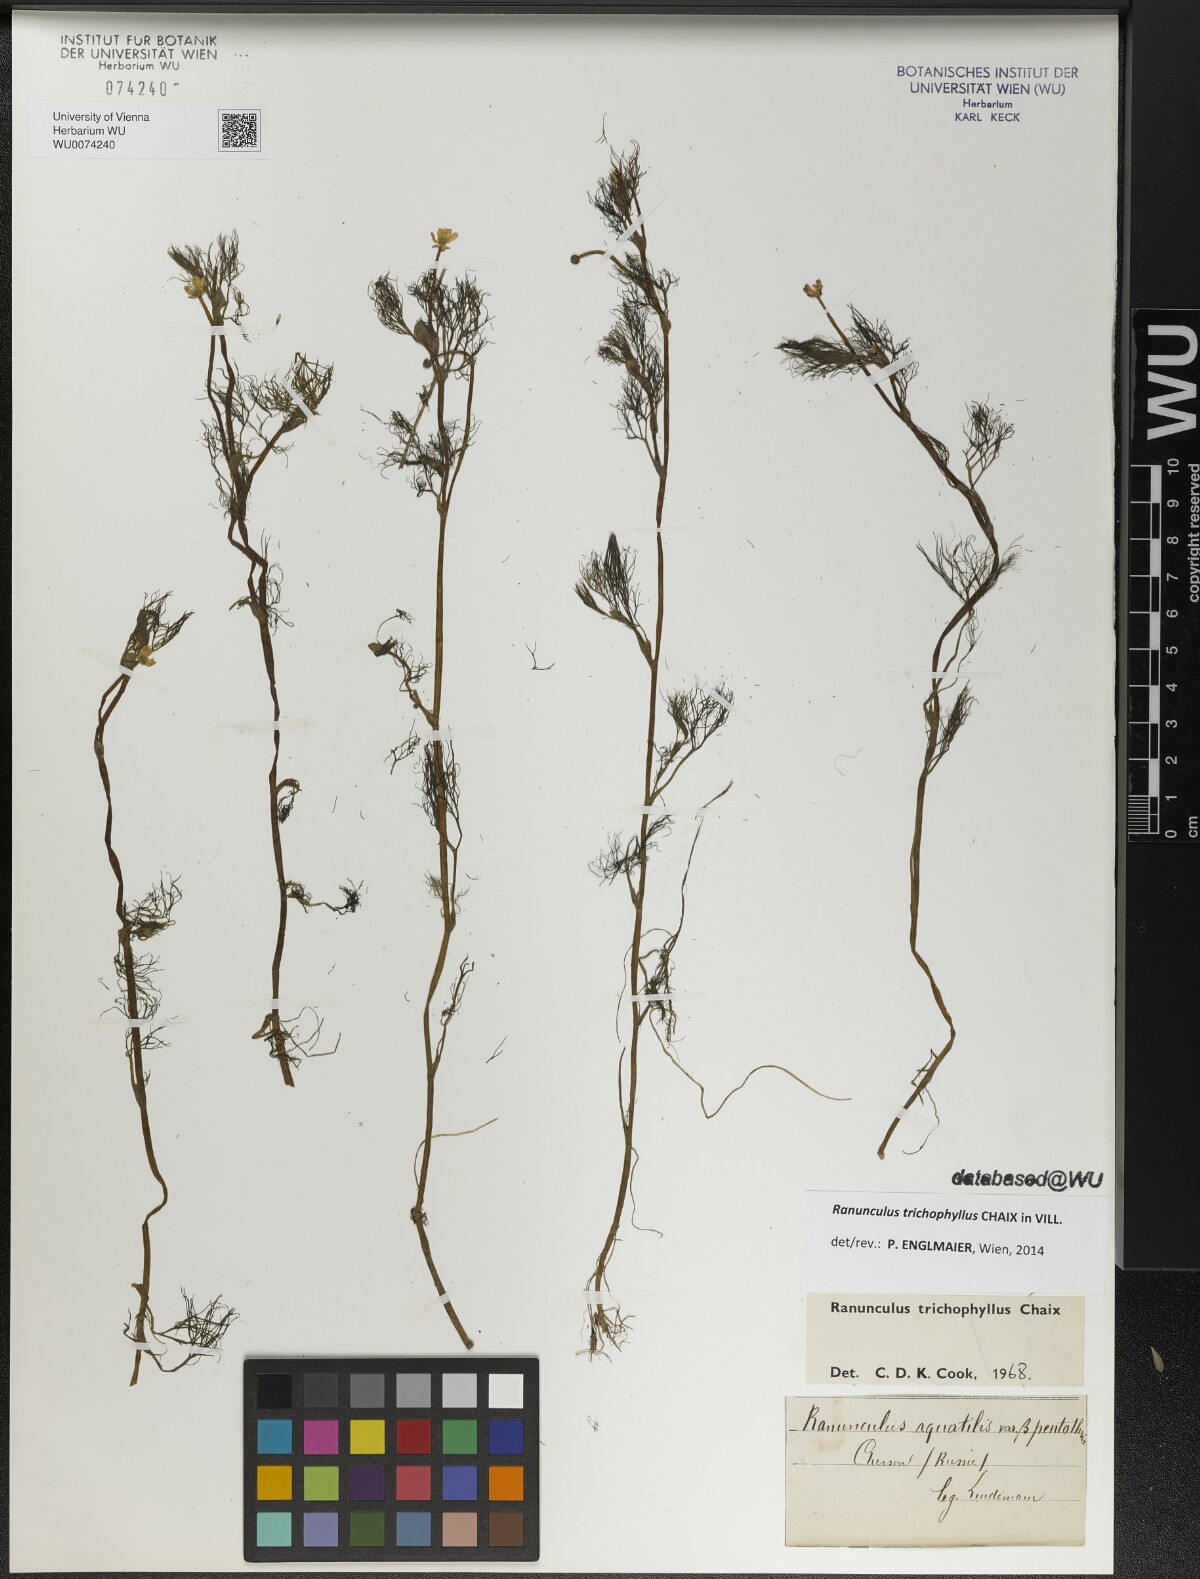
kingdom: Plantae
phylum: Tracheophyta
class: Magnoliopsida
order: Ranunculales
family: Ranunculaceae
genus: Ranunculus
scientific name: Ranunculus trichophyllus
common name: Thread-leaved water-crowfoot
